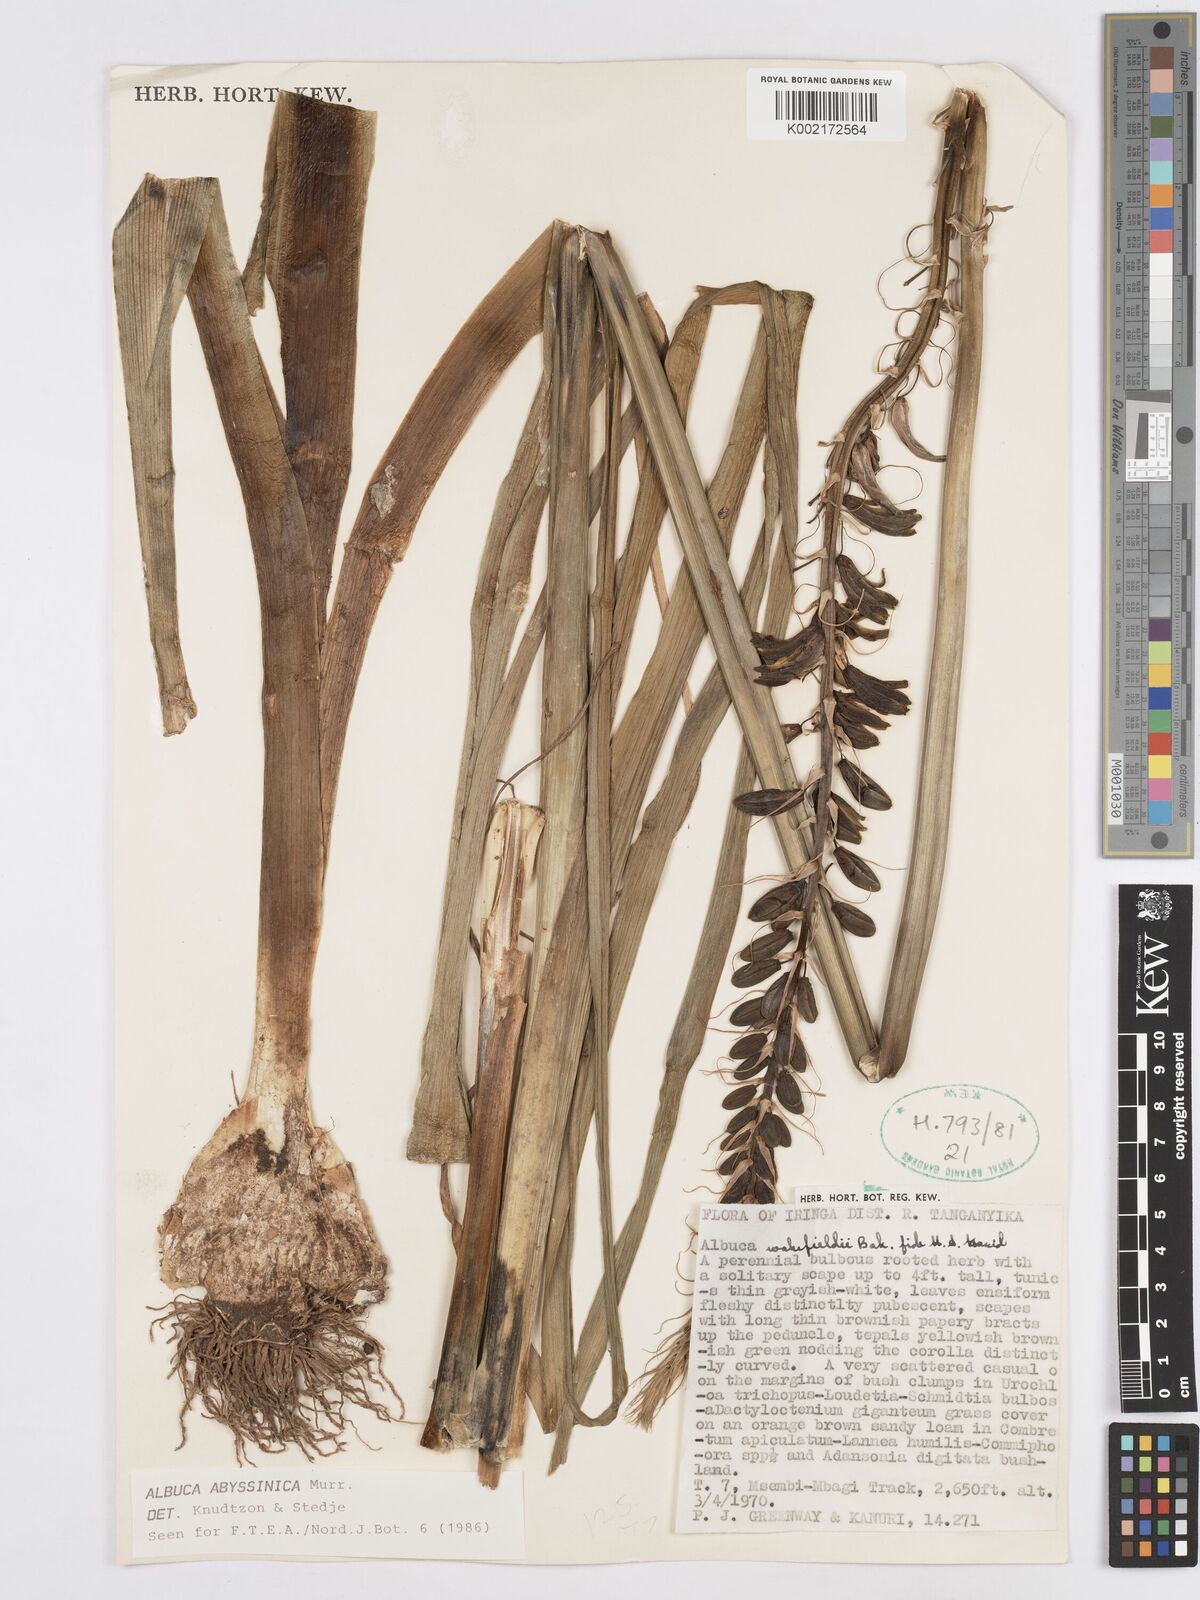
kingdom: Plantae
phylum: Tracheophyta
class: Liliopsida
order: Asparagales
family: Asparagaceae
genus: Albuca
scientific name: Albuca abyssinica
